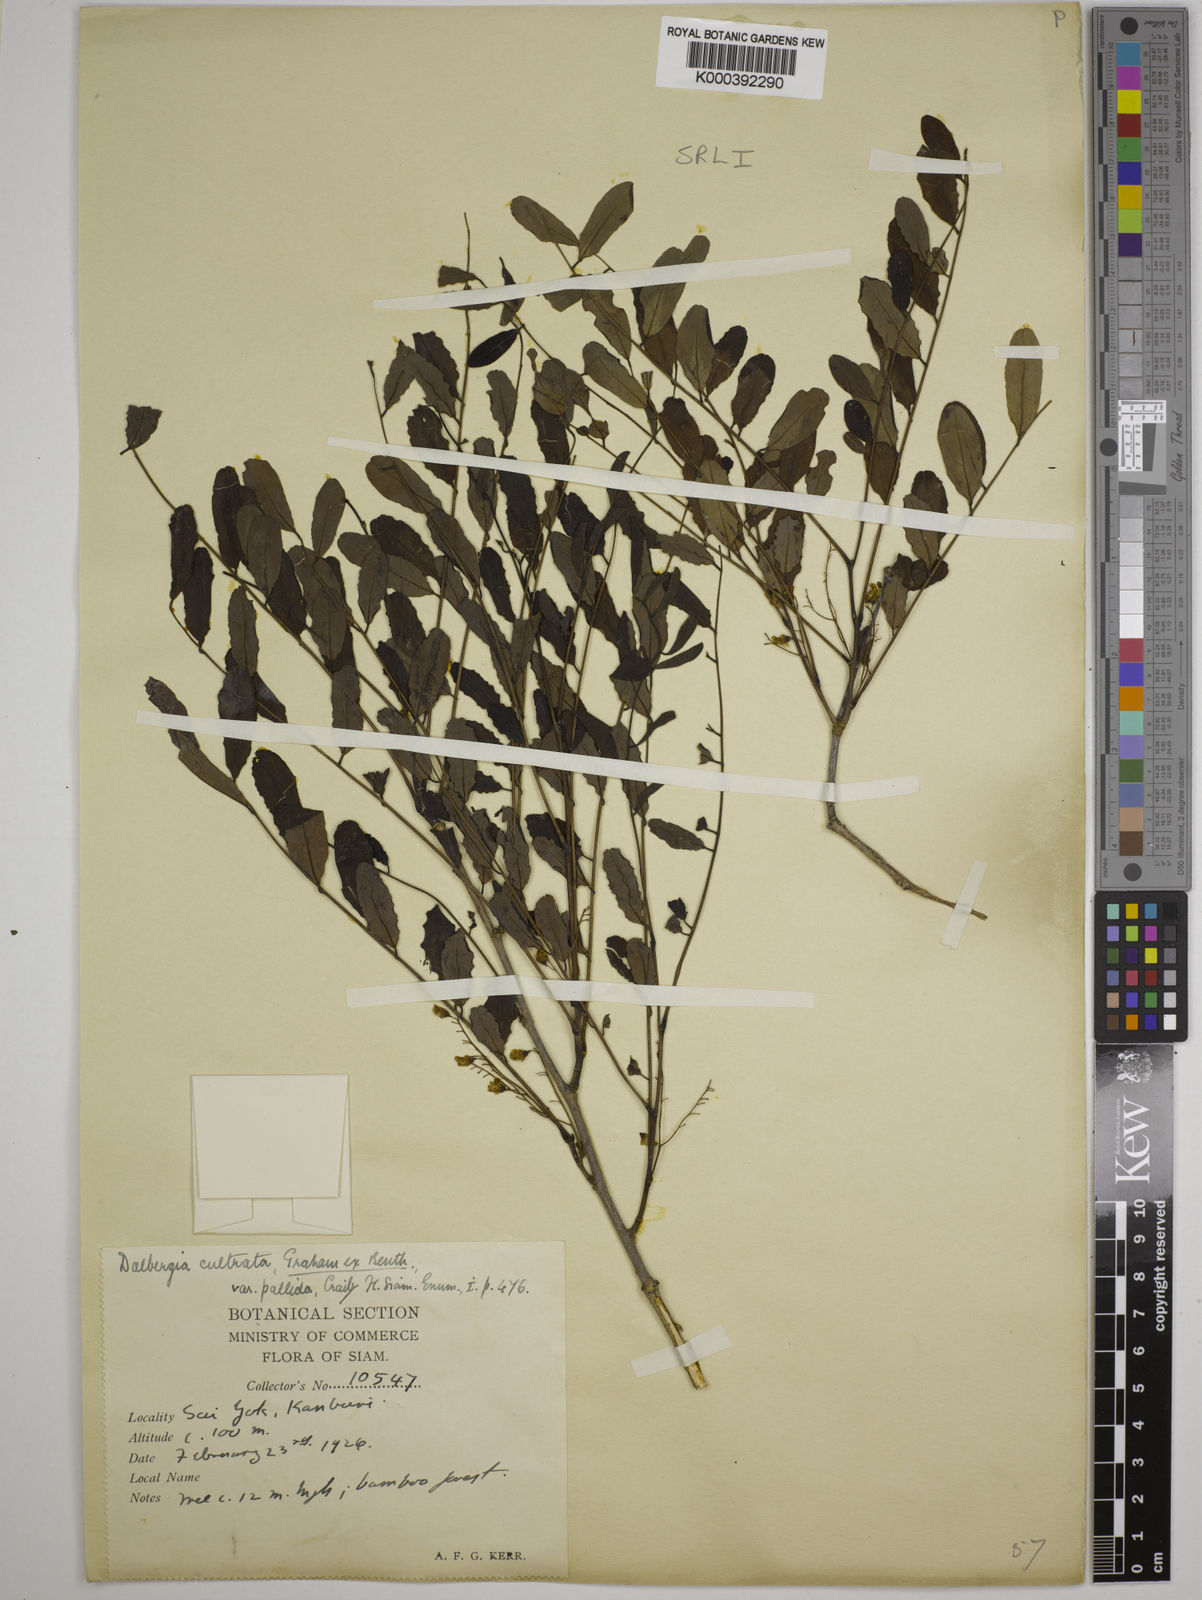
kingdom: Plantae
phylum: Tracheophyta
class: Magnoliopsida
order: Fabales
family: Fabaceae
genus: Dalbergia
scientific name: Dalbergia
